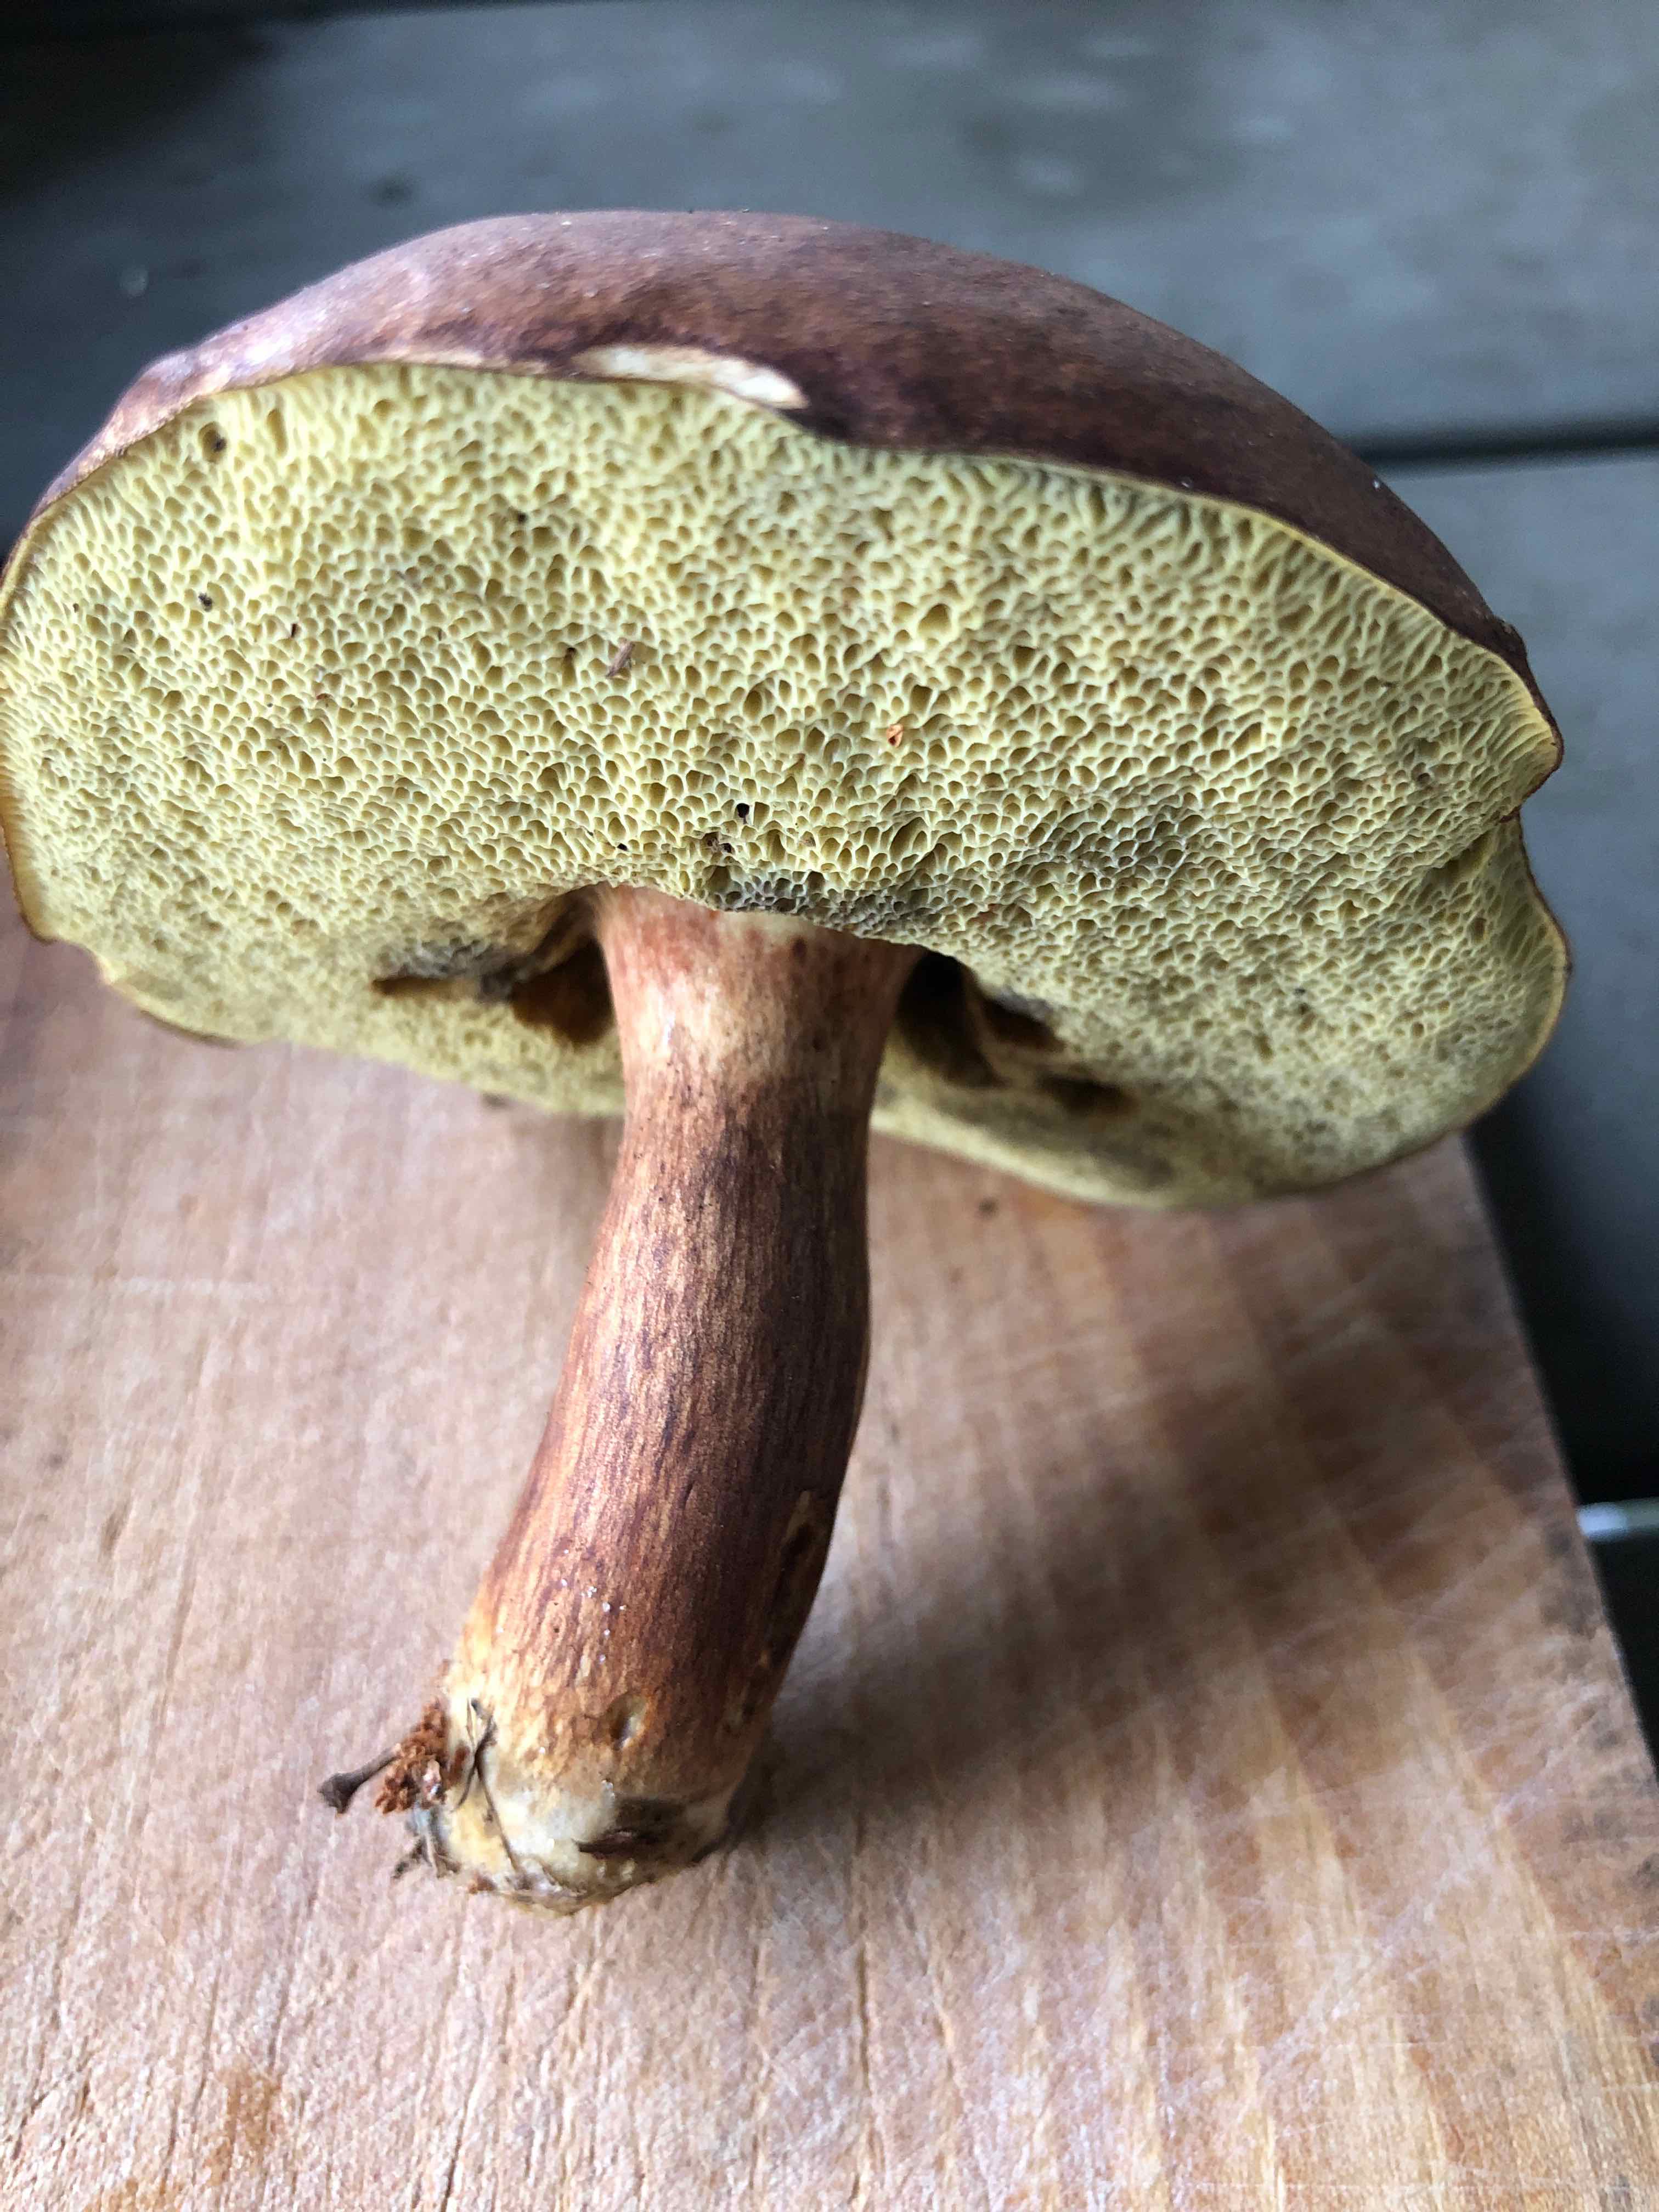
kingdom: Fungi
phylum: Basidiomycota
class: Agaricomycetes
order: Boletales
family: Boletaceae
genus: Imleria
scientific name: Imleria badia
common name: brunstokket rørhat
